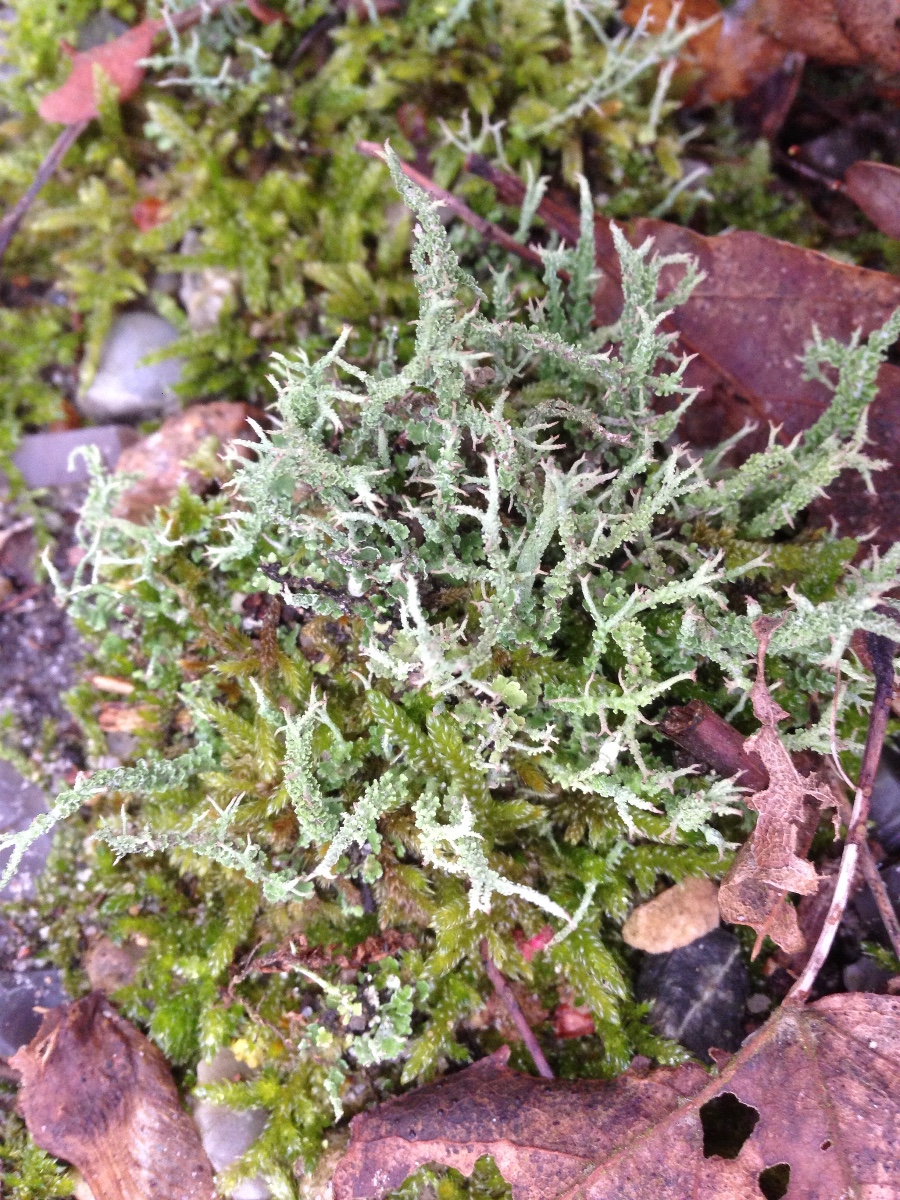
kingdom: Fungi
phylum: Ascomycota
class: Lecanoromycetes
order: Lecanorales
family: Cladoniaceae
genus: Cladonia
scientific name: Cladonia scabriuscula
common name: ru bægerlav
